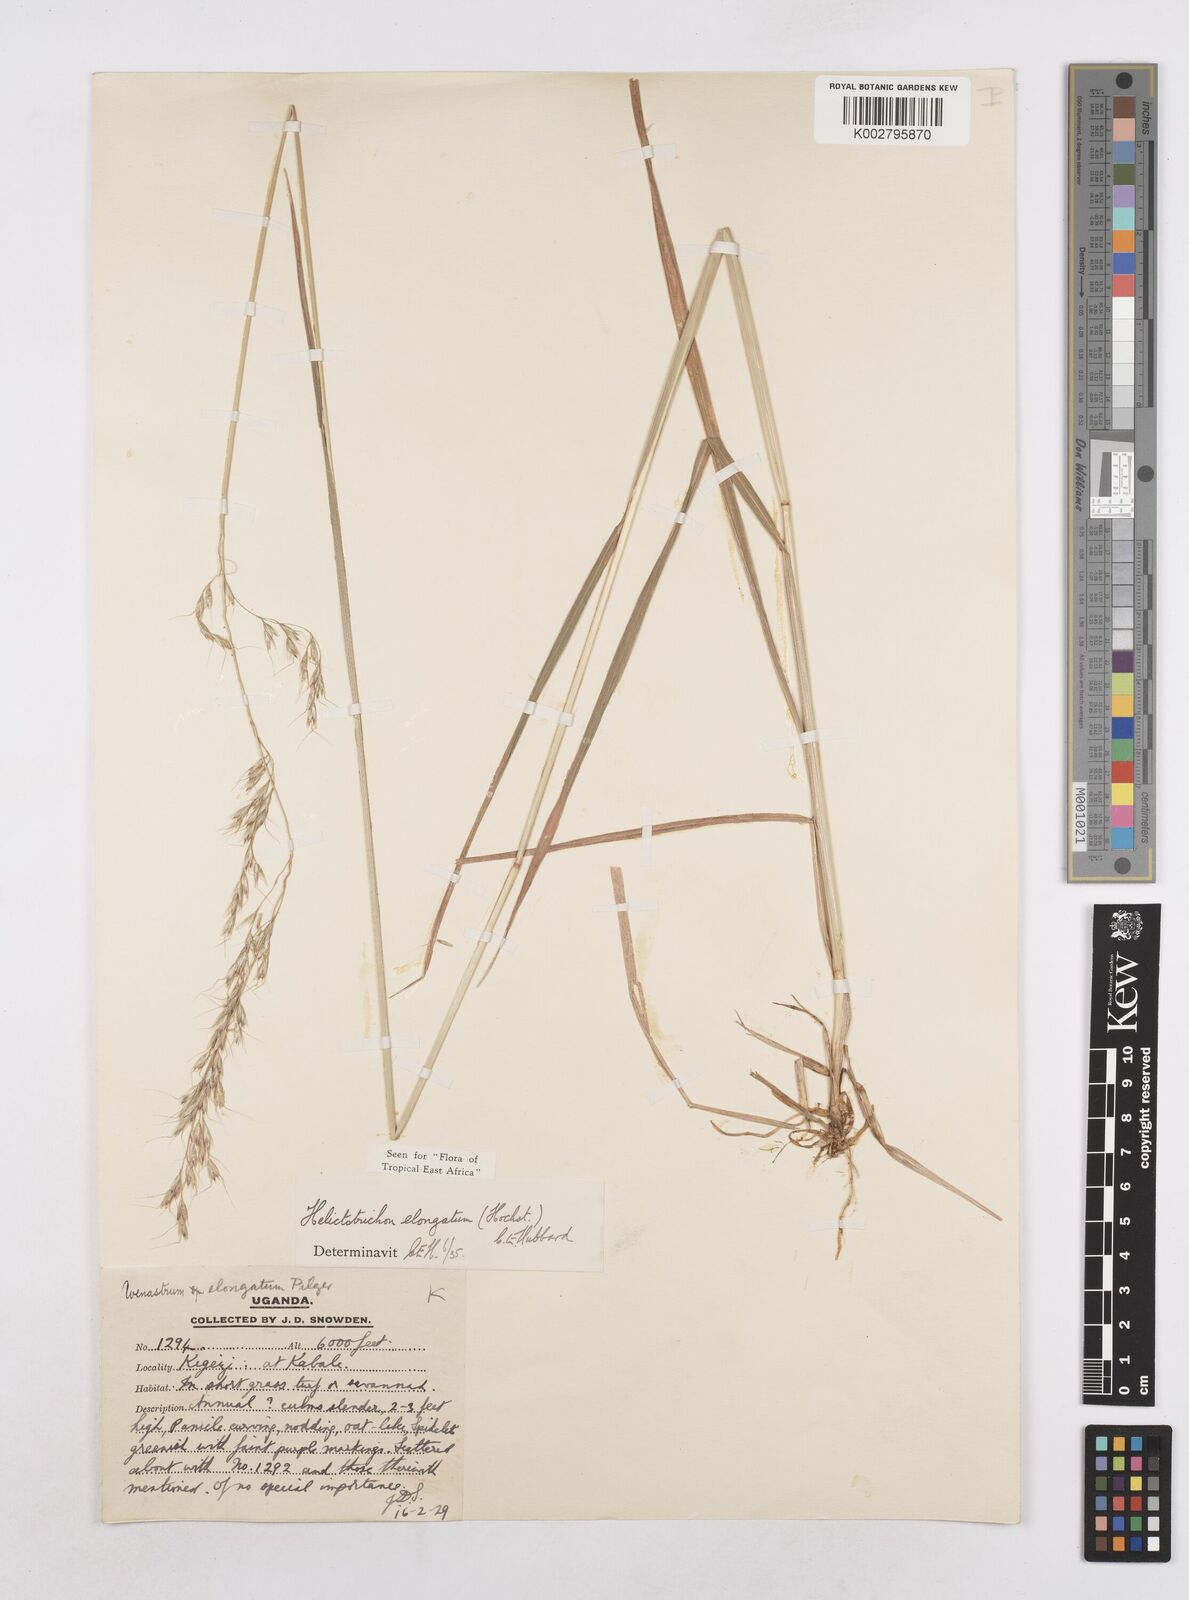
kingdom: Plantae
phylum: Tracheophyta
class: Liliopsida
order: Poales
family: Poaceae
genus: Trisetopsis
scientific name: Trisetopsis elongata
